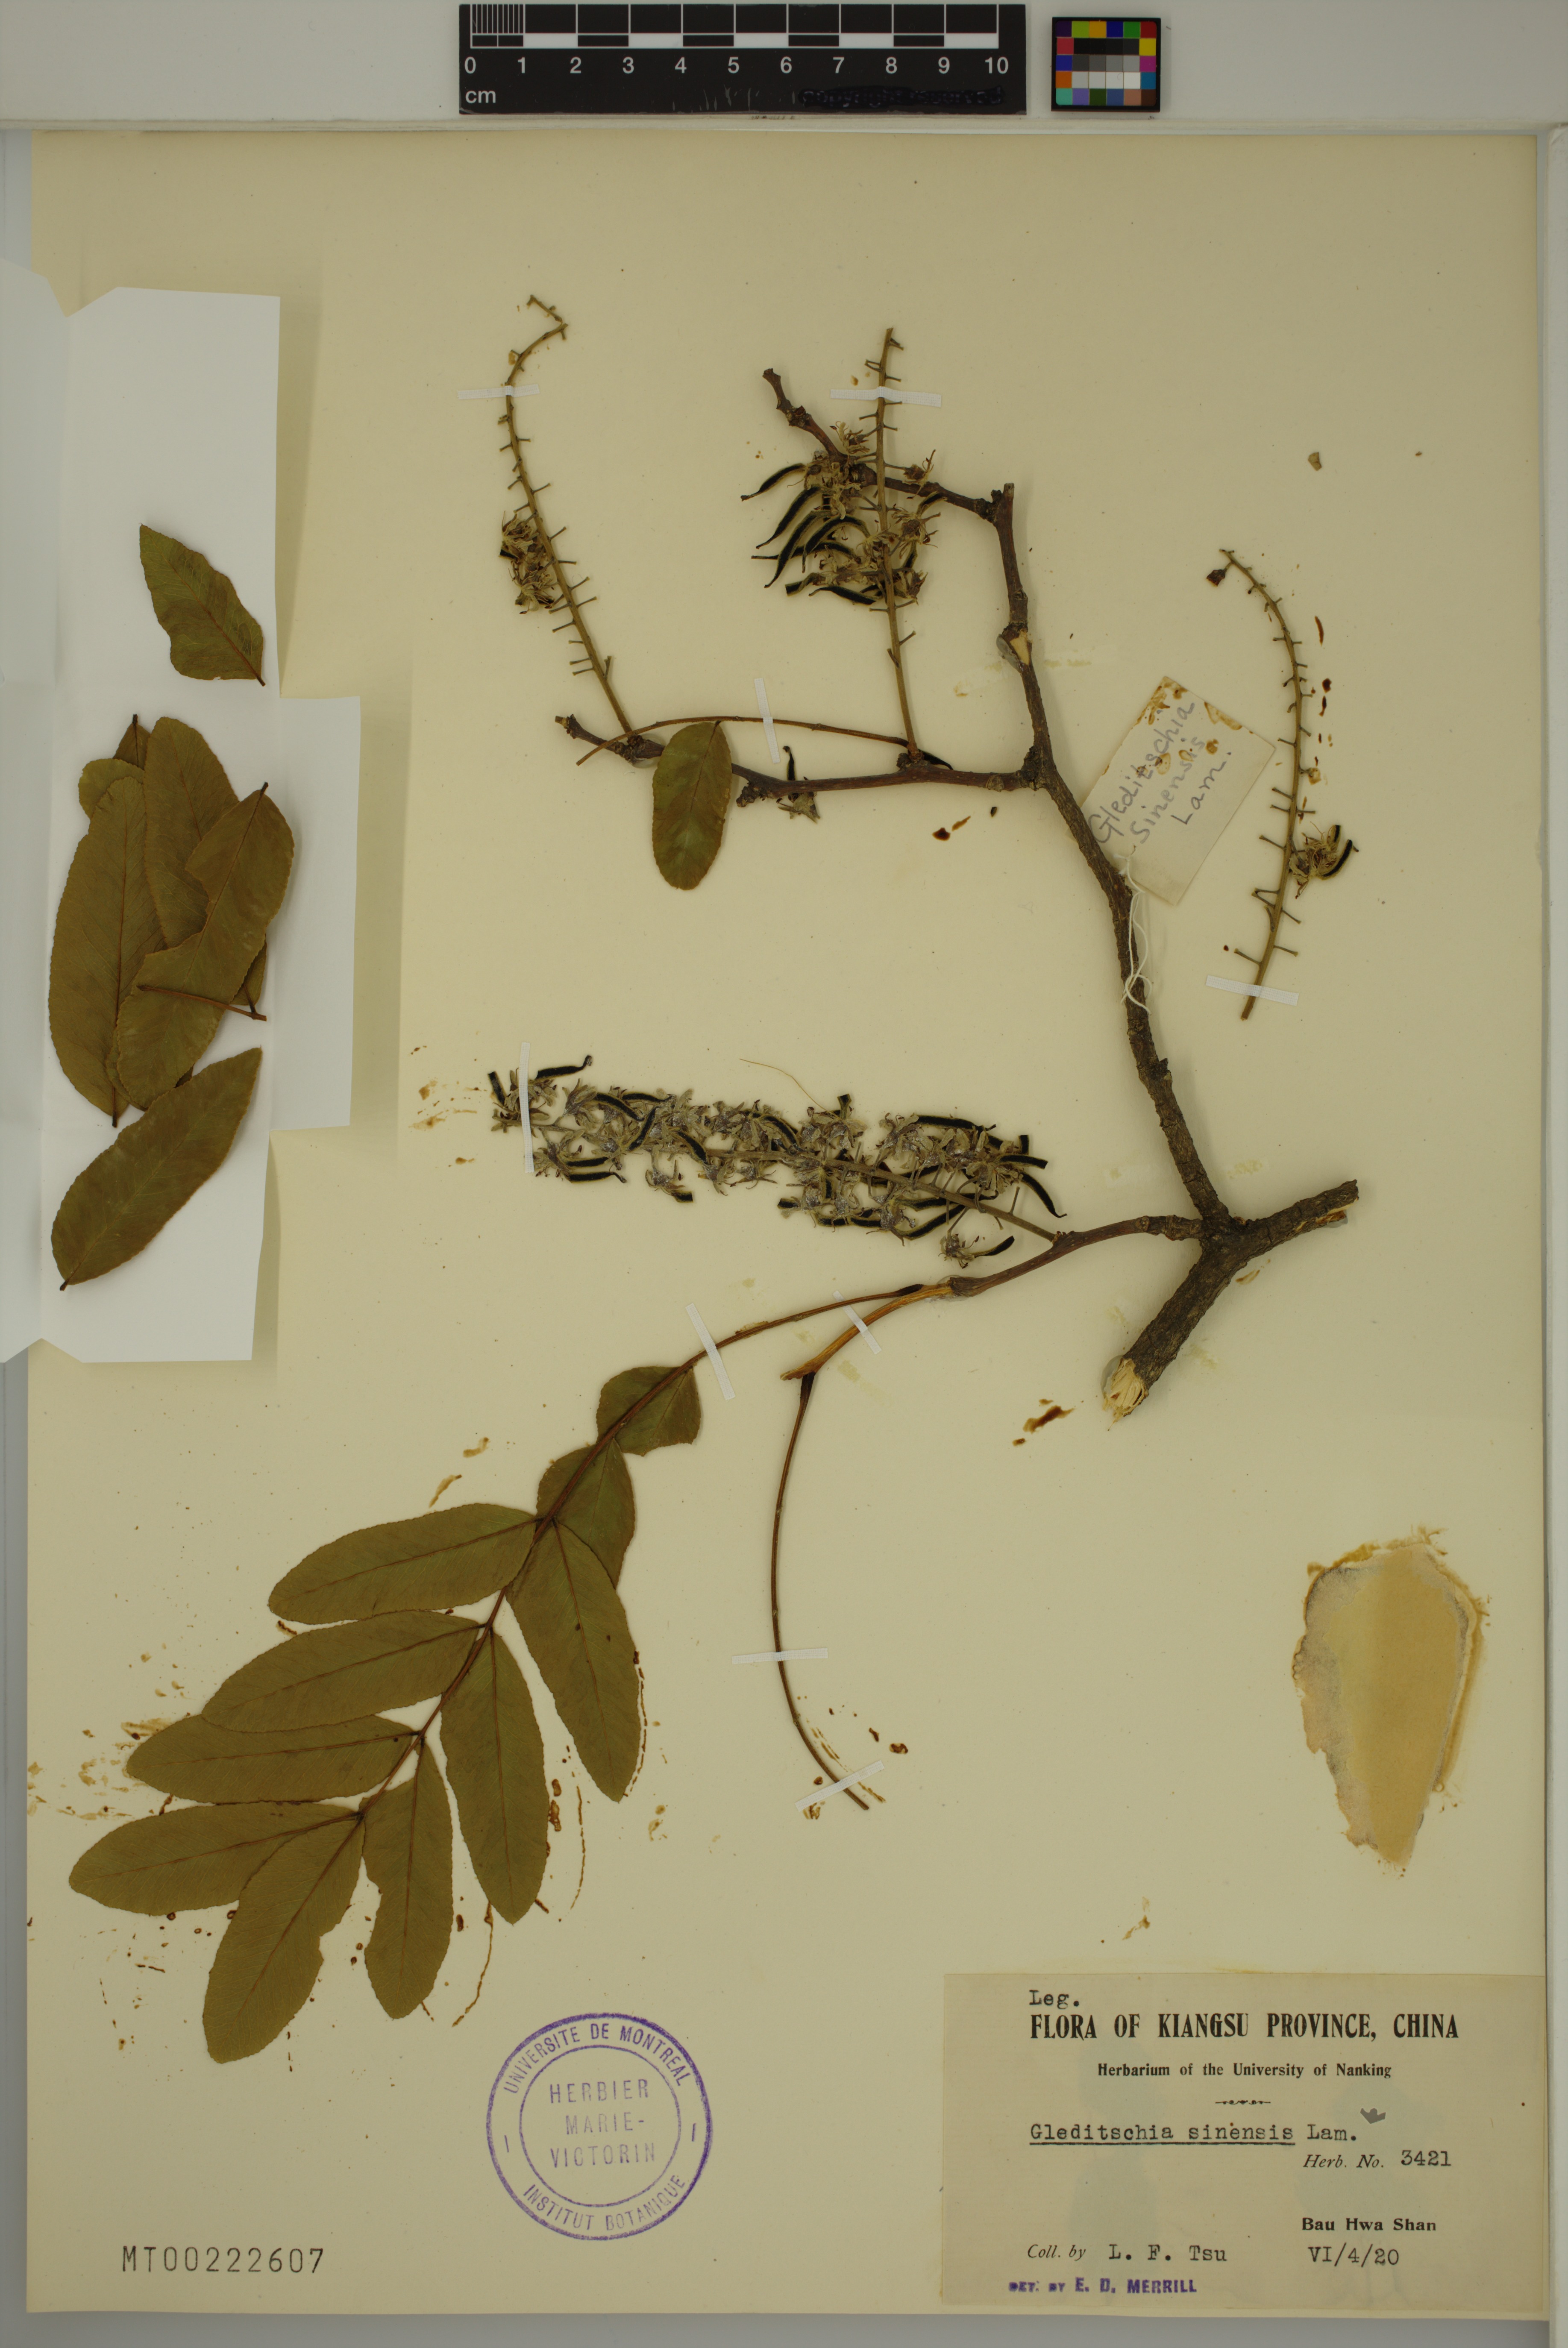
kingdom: Plantae
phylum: Tracheophyta
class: Magnoliopsida
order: Fabales
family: Fabaceae
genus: Gleditsia
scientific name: Gleditsia sinensis
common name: Chinese honey-locust
